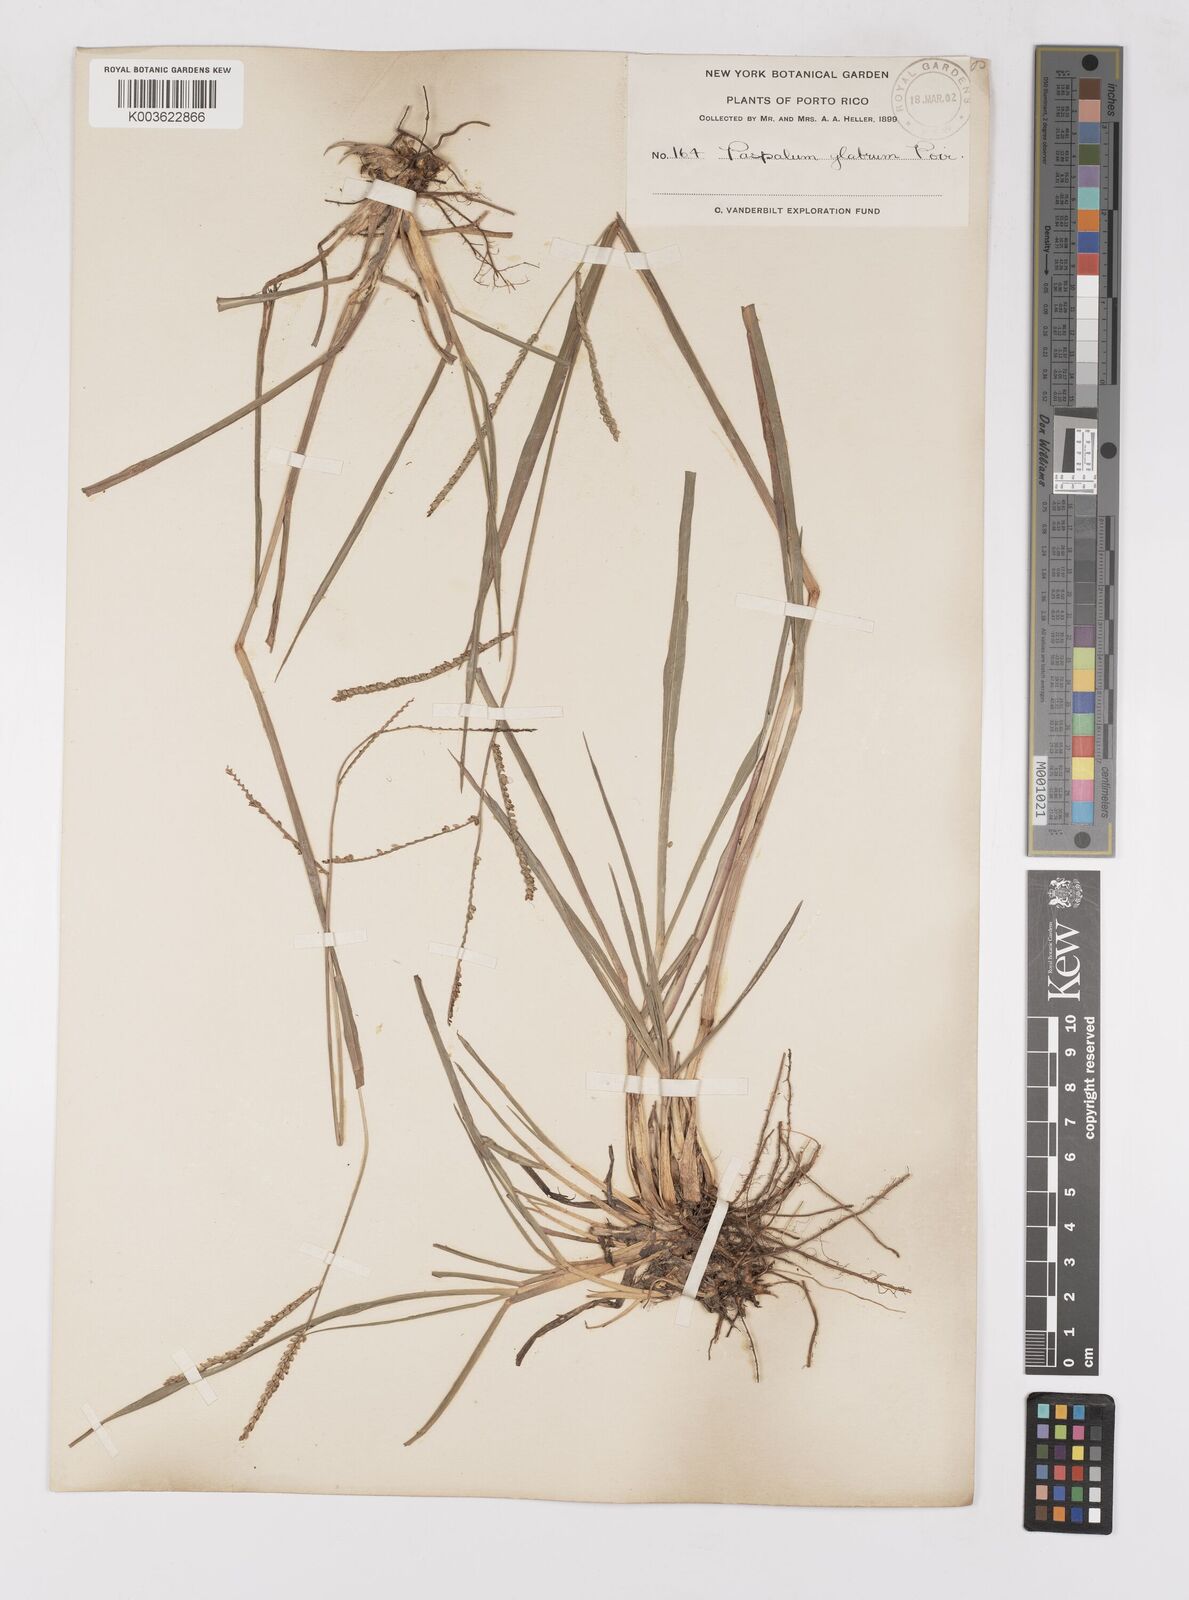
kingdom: Plantae
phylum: Tracheophyta
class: Liliopsida
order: Poales
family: Poaceae
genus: Paspalum
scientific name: Paspalum laxum
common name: Coconut paspalum
